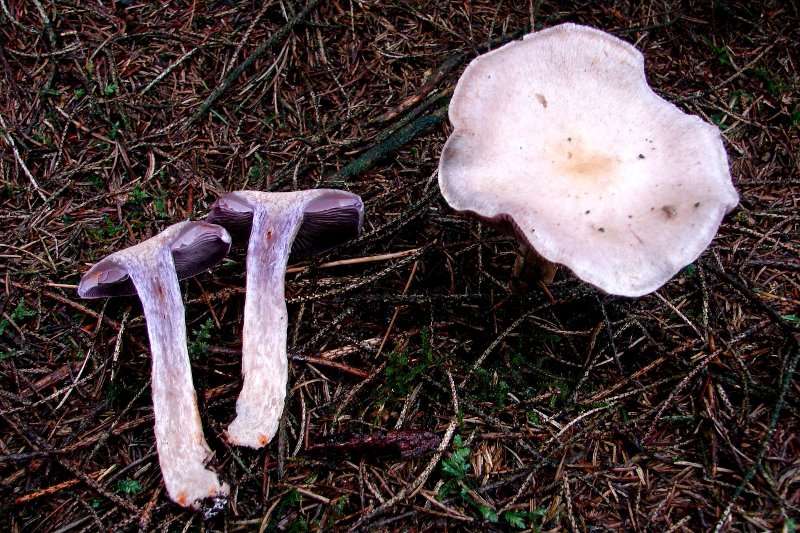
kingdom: Fungi
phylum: Basidiomycota
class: Agaricomycetes
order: Agaricales
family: Cortinariaceae
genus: Cortinarius
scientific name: Cortinarius camphoratus
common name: stinkende slørhat
